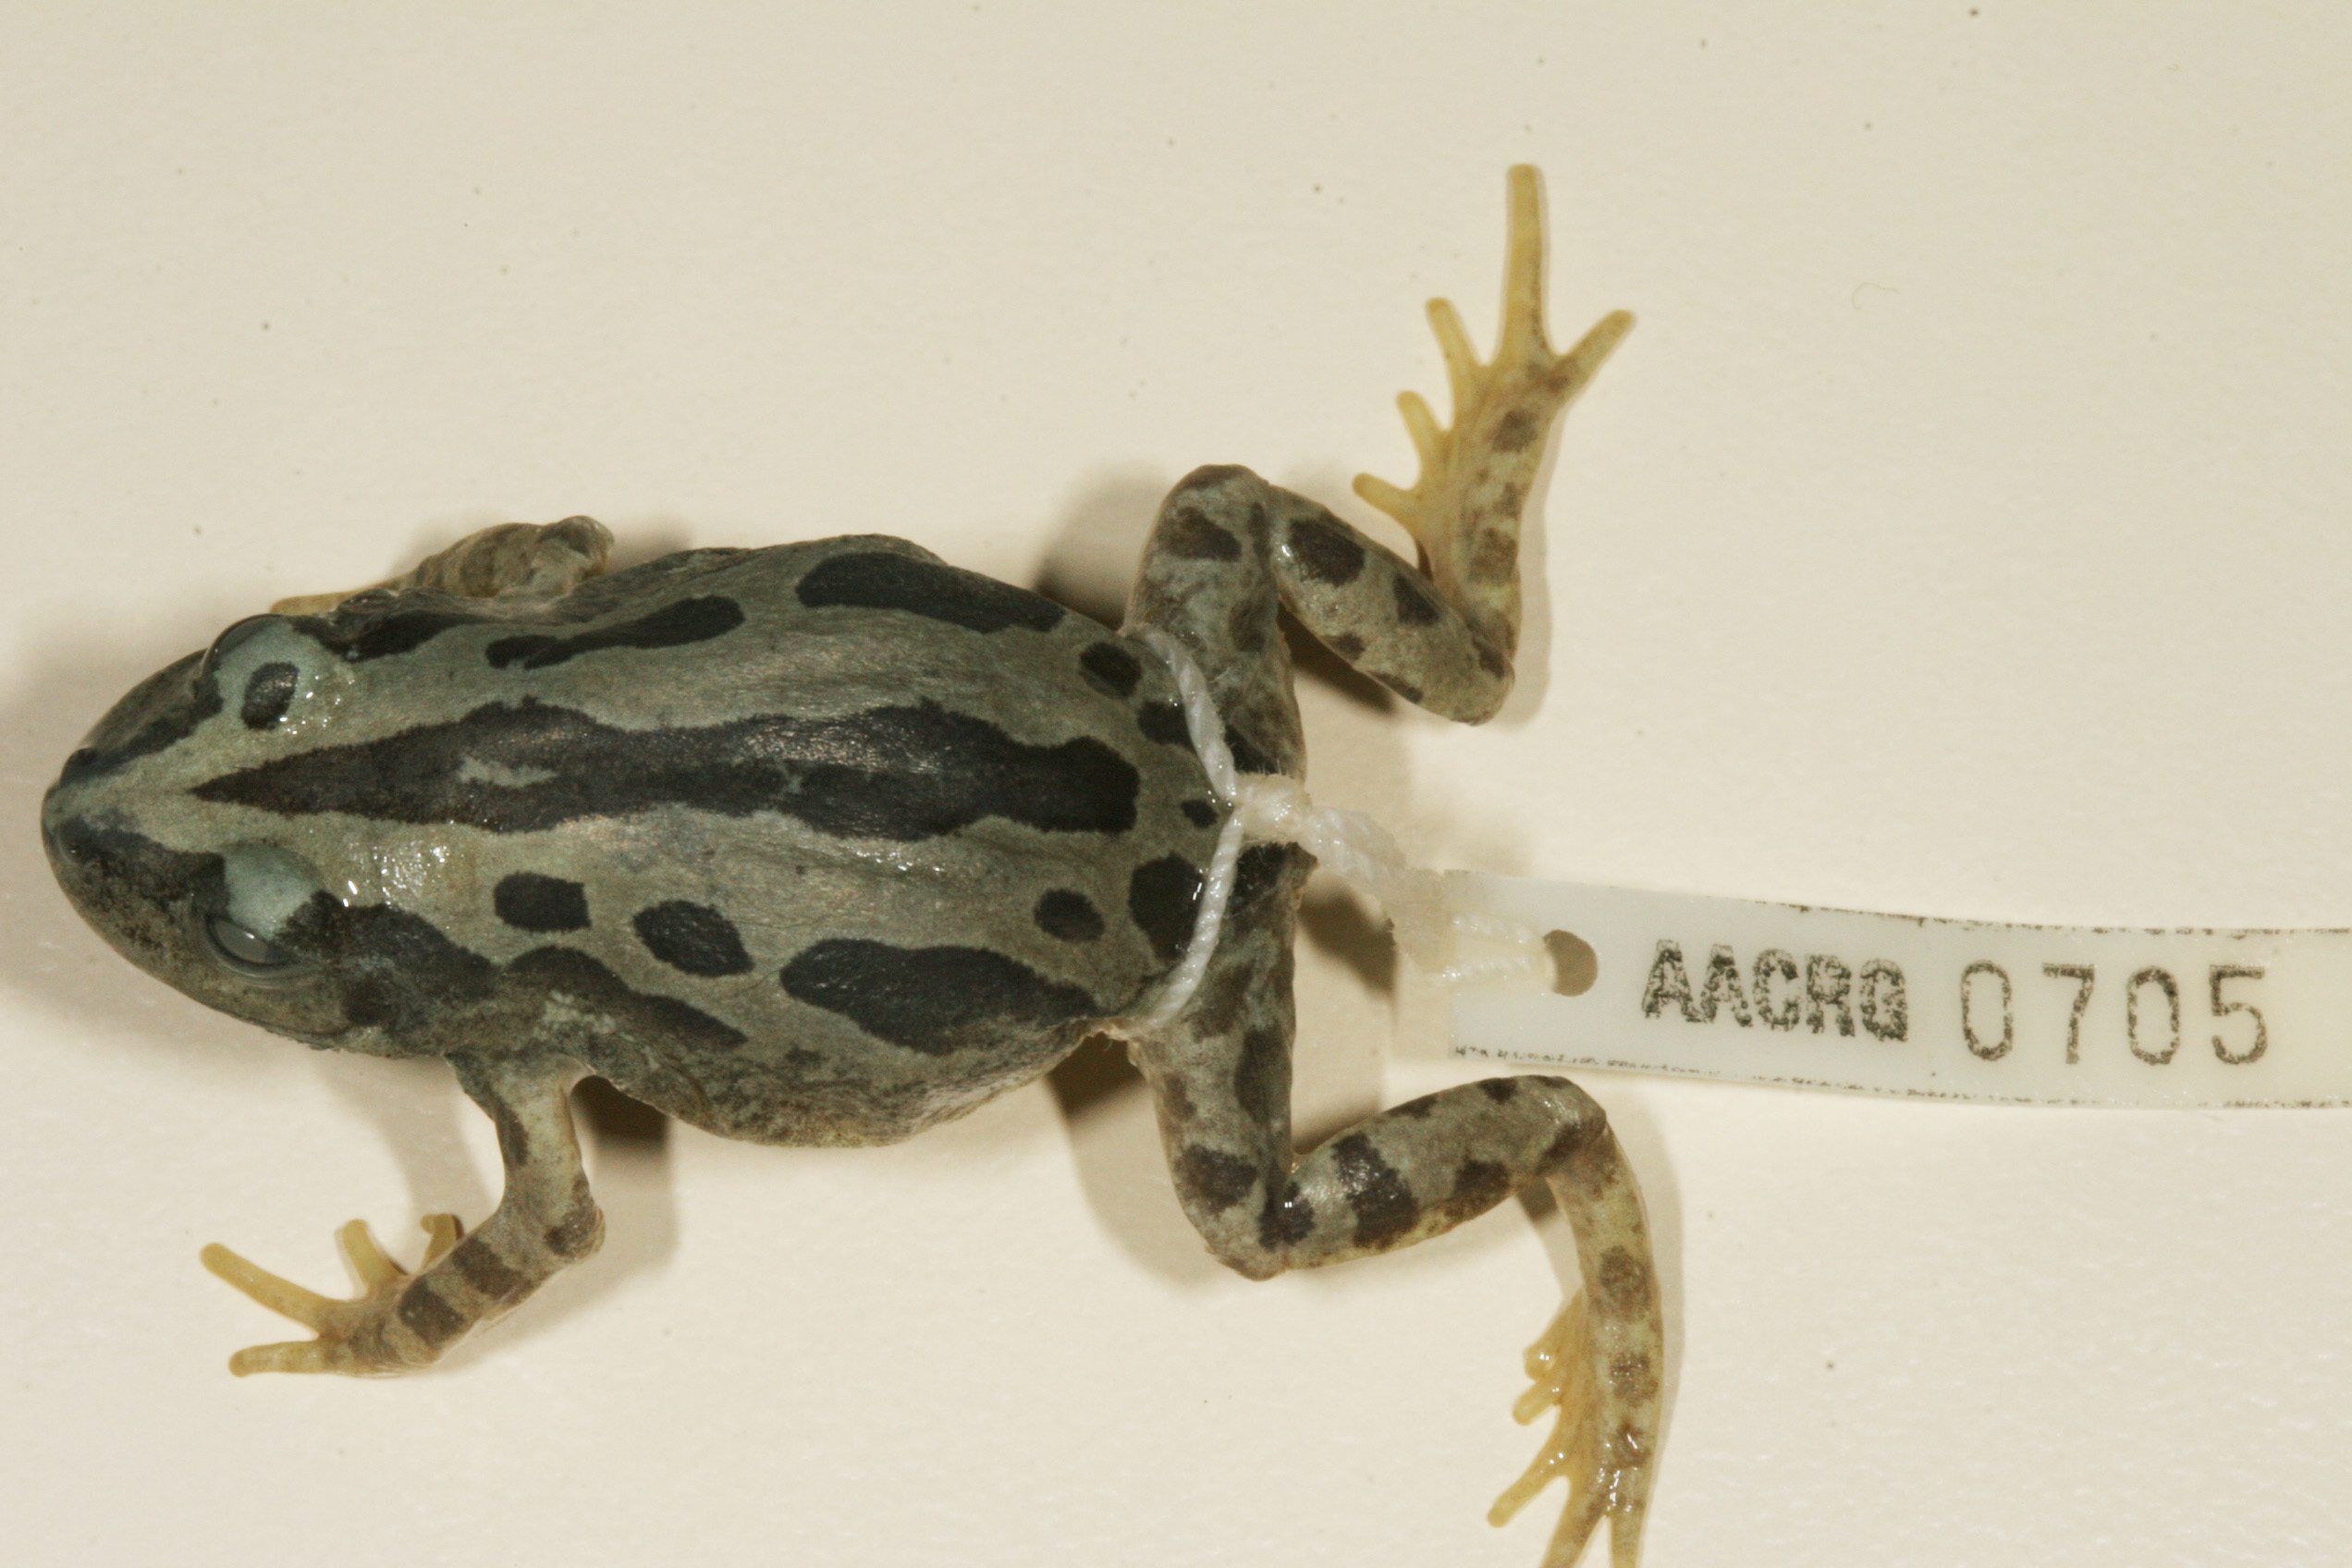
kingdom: Animalia
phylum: Chordata
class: Amphibia
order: Anura
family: Hyperoliidae
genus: Kassina
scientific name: Kassina senegalensis
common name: Senegal land frog
